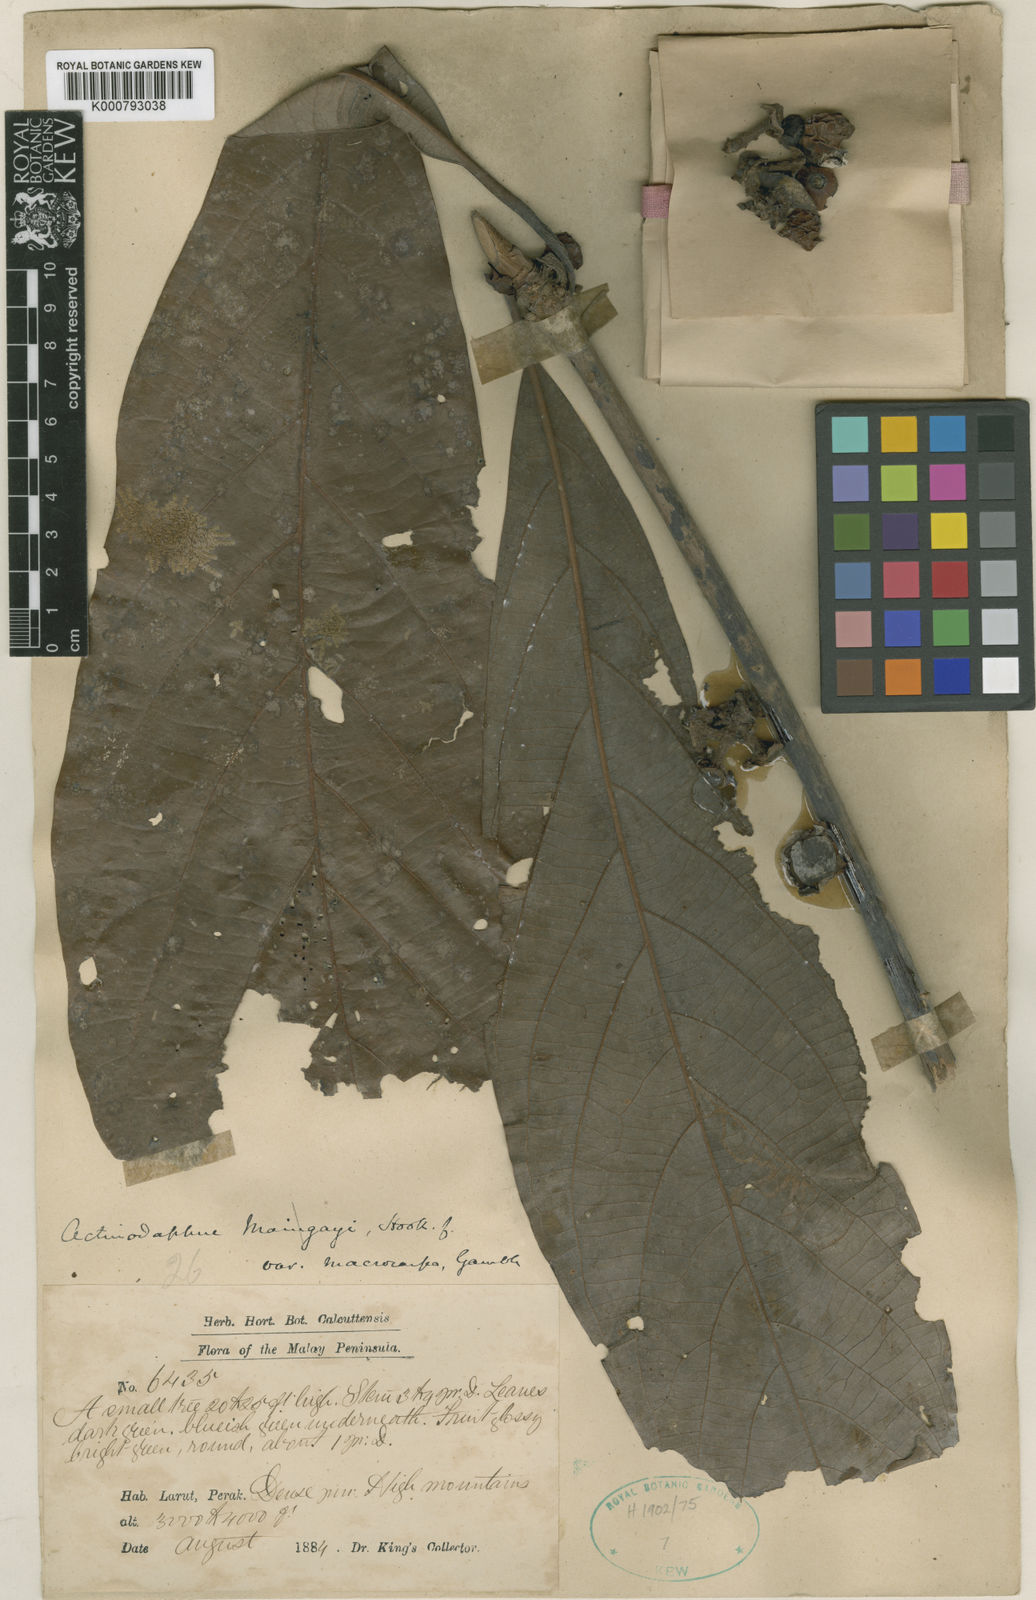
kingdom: Plantae
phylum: Tracheophyta
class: Magnoliopsida
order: Laurales
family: Lauraceae
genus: Actinodaphne
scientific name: Actinodaphne macrophylla
